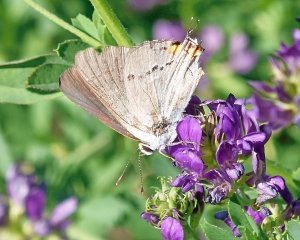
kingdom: Animalia
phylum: Arthropoda
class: Insecta
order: Lepidoptera
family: Lycaenidae
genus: Strymon
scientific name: Strymon melinus
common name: Gray Hairstreak
